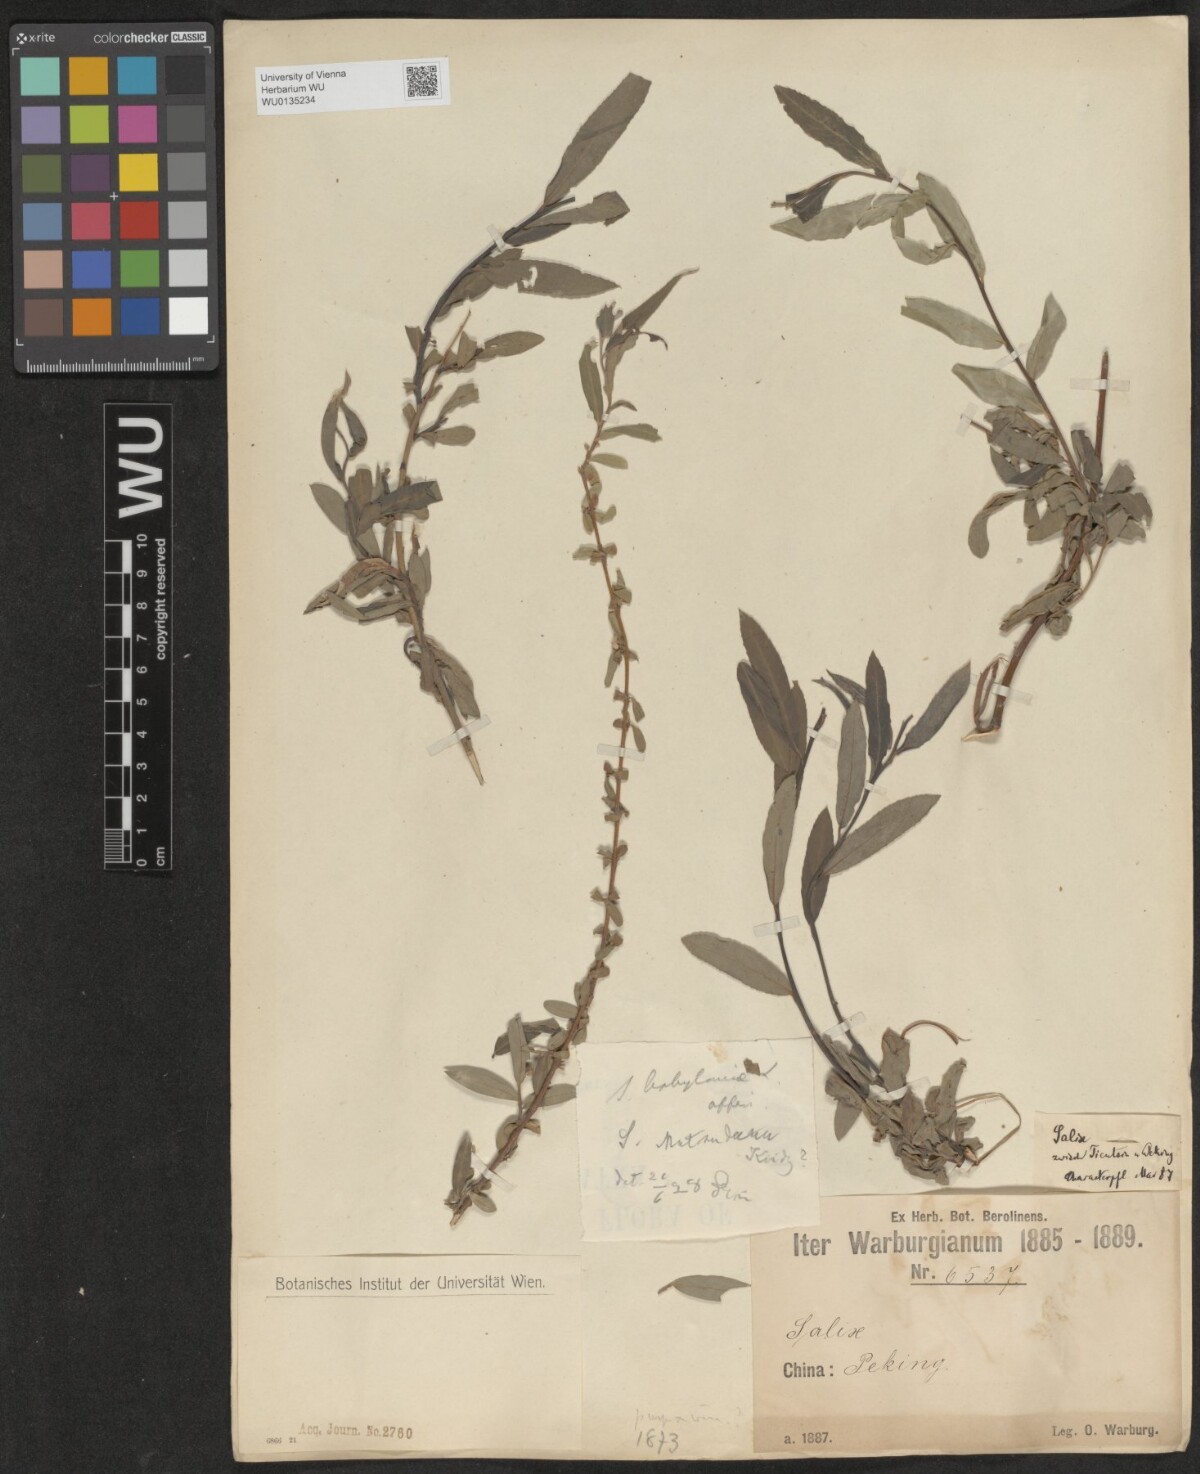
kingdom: Plantae
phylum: Tracheophyta
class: Magnoliopsida
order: Malpighiales
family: Salicaceae
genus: Salix
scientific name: Salix babylonica
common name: Weeping willow
